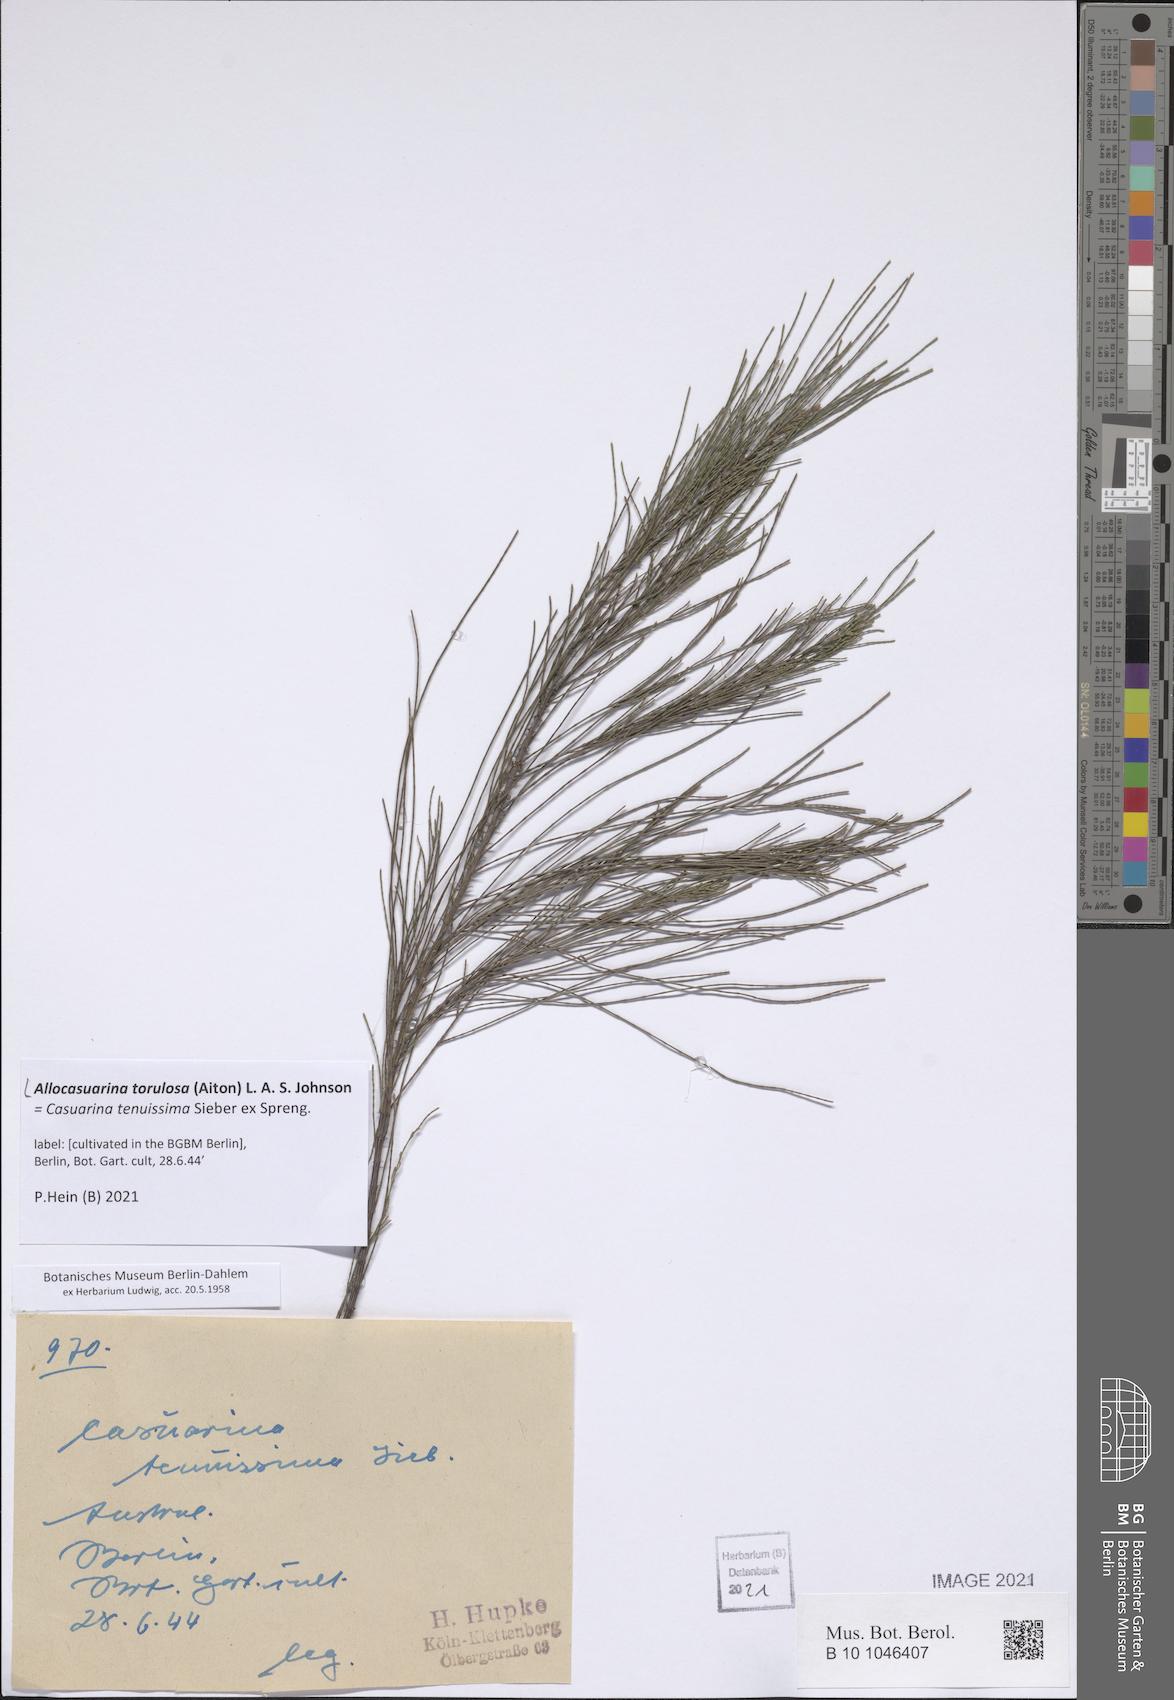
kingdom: Plantae
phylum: Tracheophyta
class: Magnoliopsida
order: Fagales
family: Casuarinaceae
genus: Allocasuarina
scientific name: Allocasuarina torulosa
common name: Forest-oak
